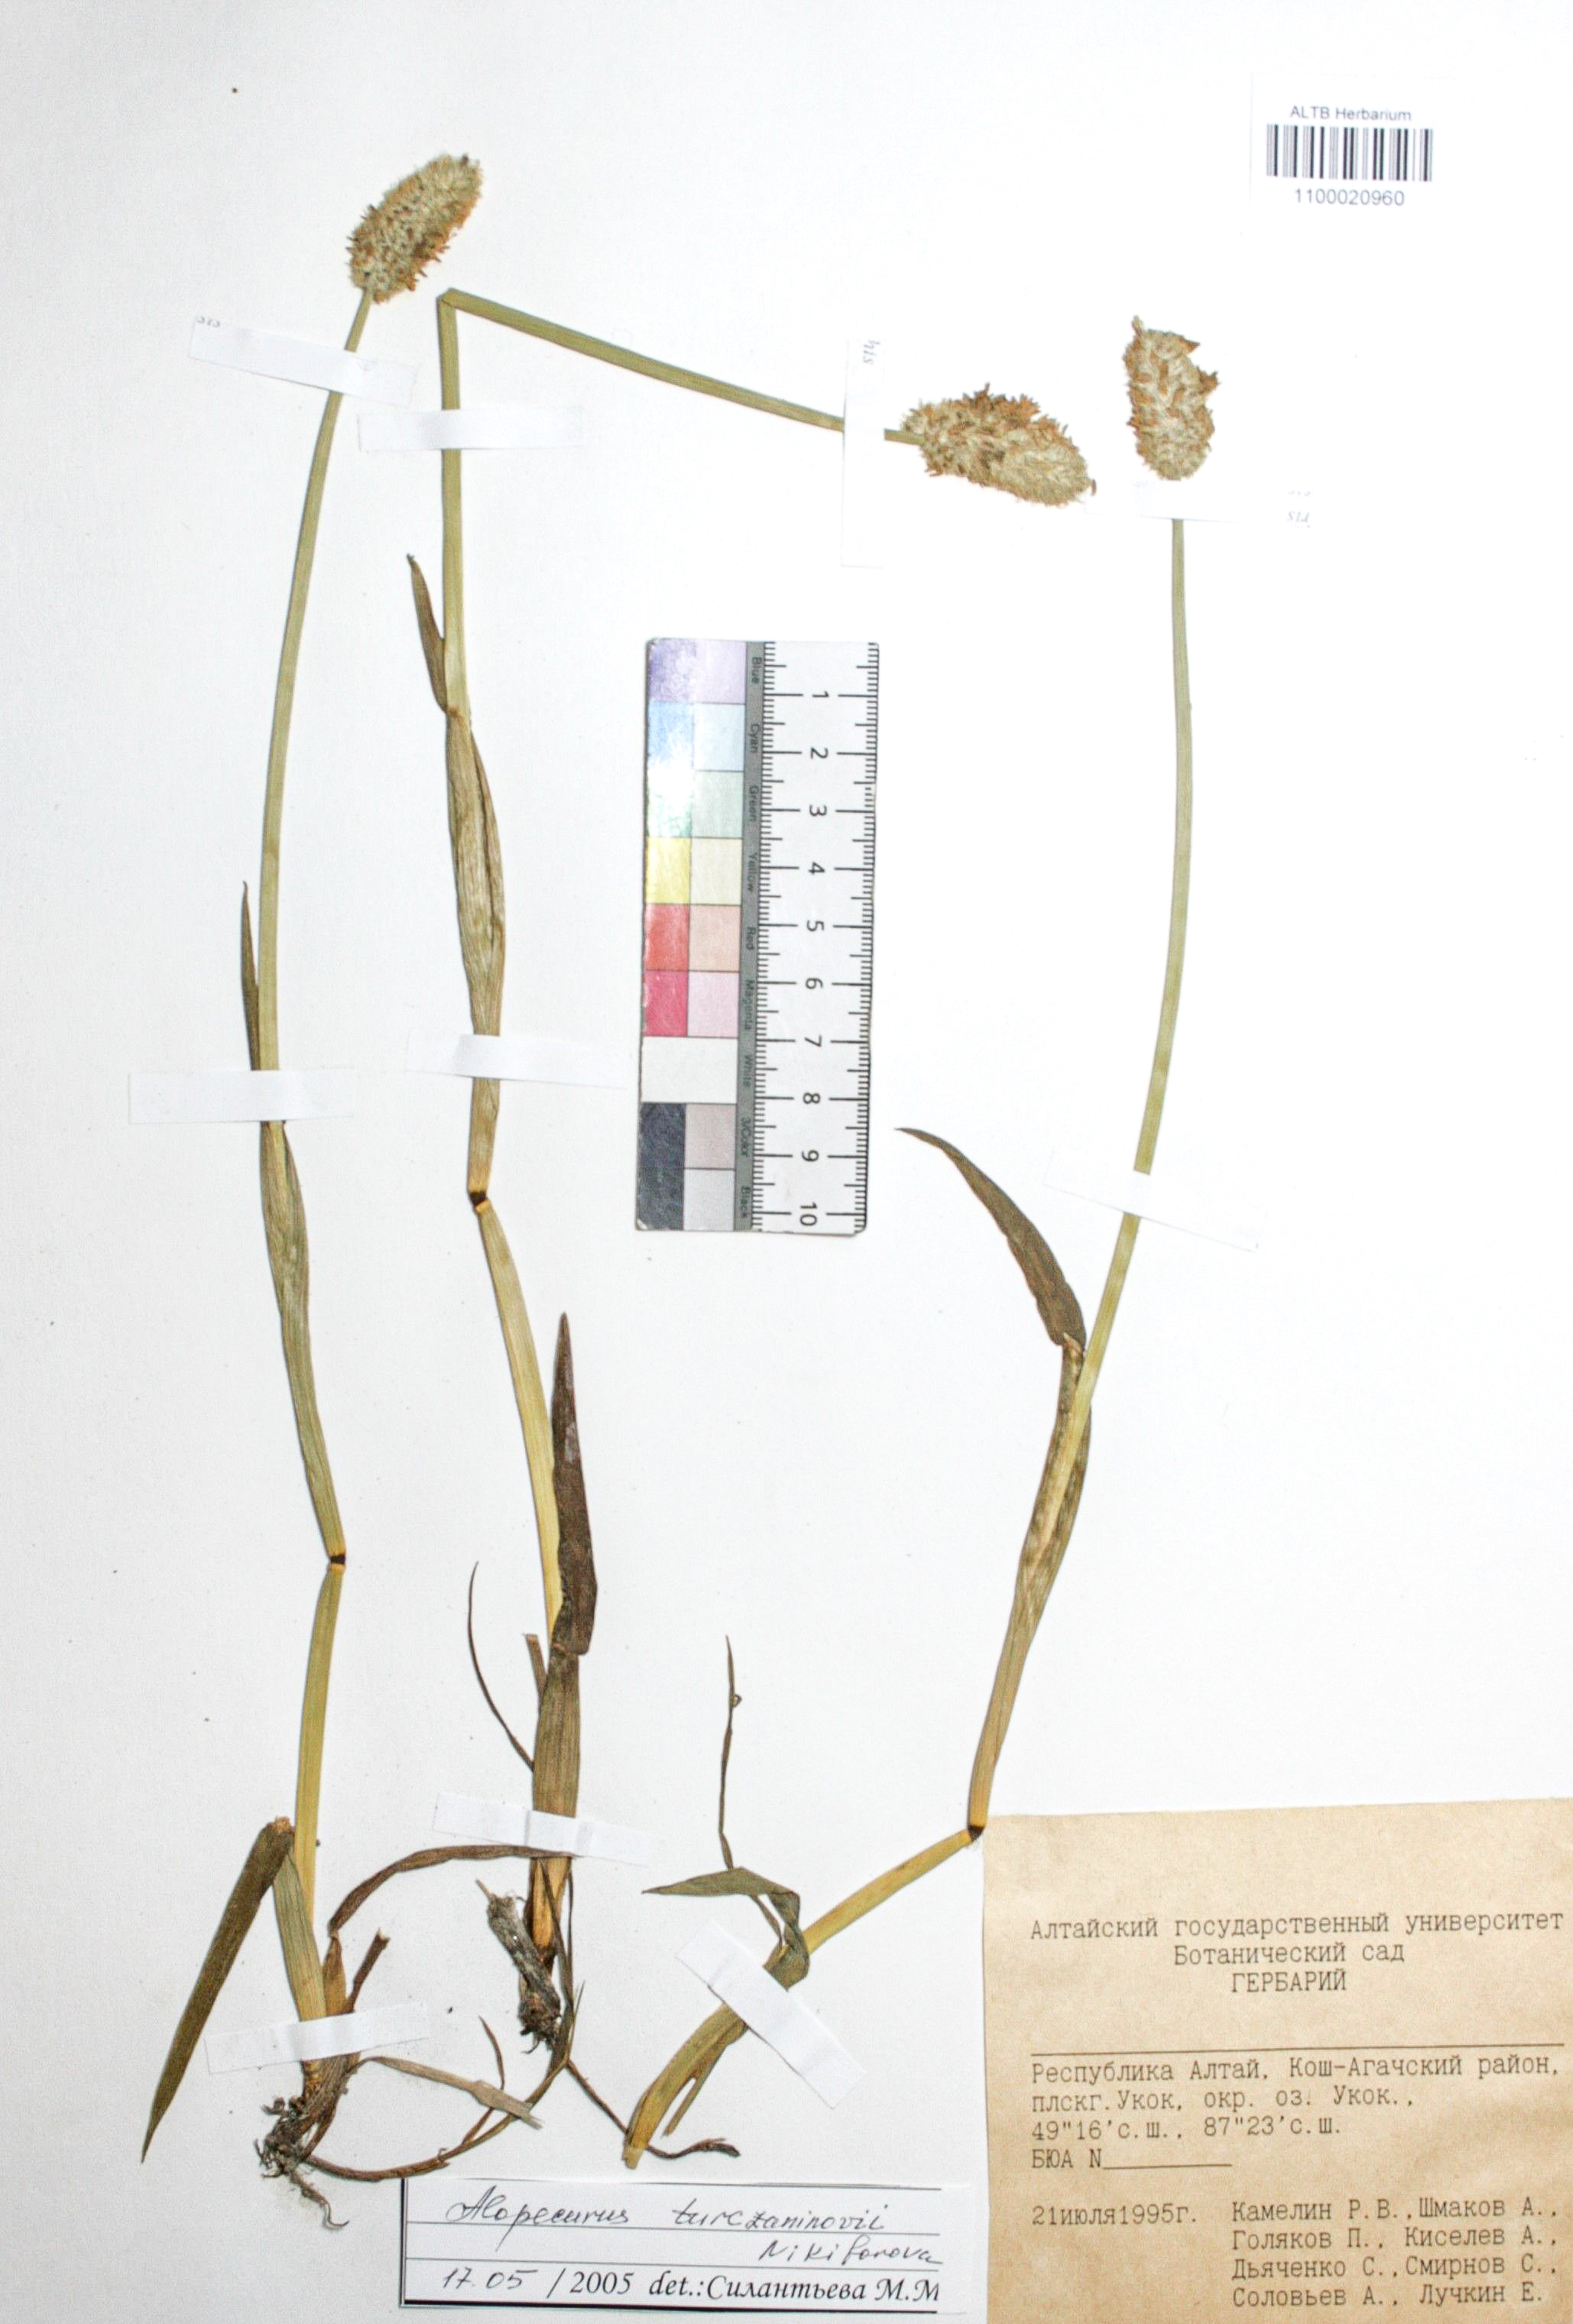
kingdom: Plantae
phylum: Tracheophyta
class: Liliopsida
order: Poales
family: Poaceae
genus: Alopecurus
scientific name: Alopecurus turczaninovii
